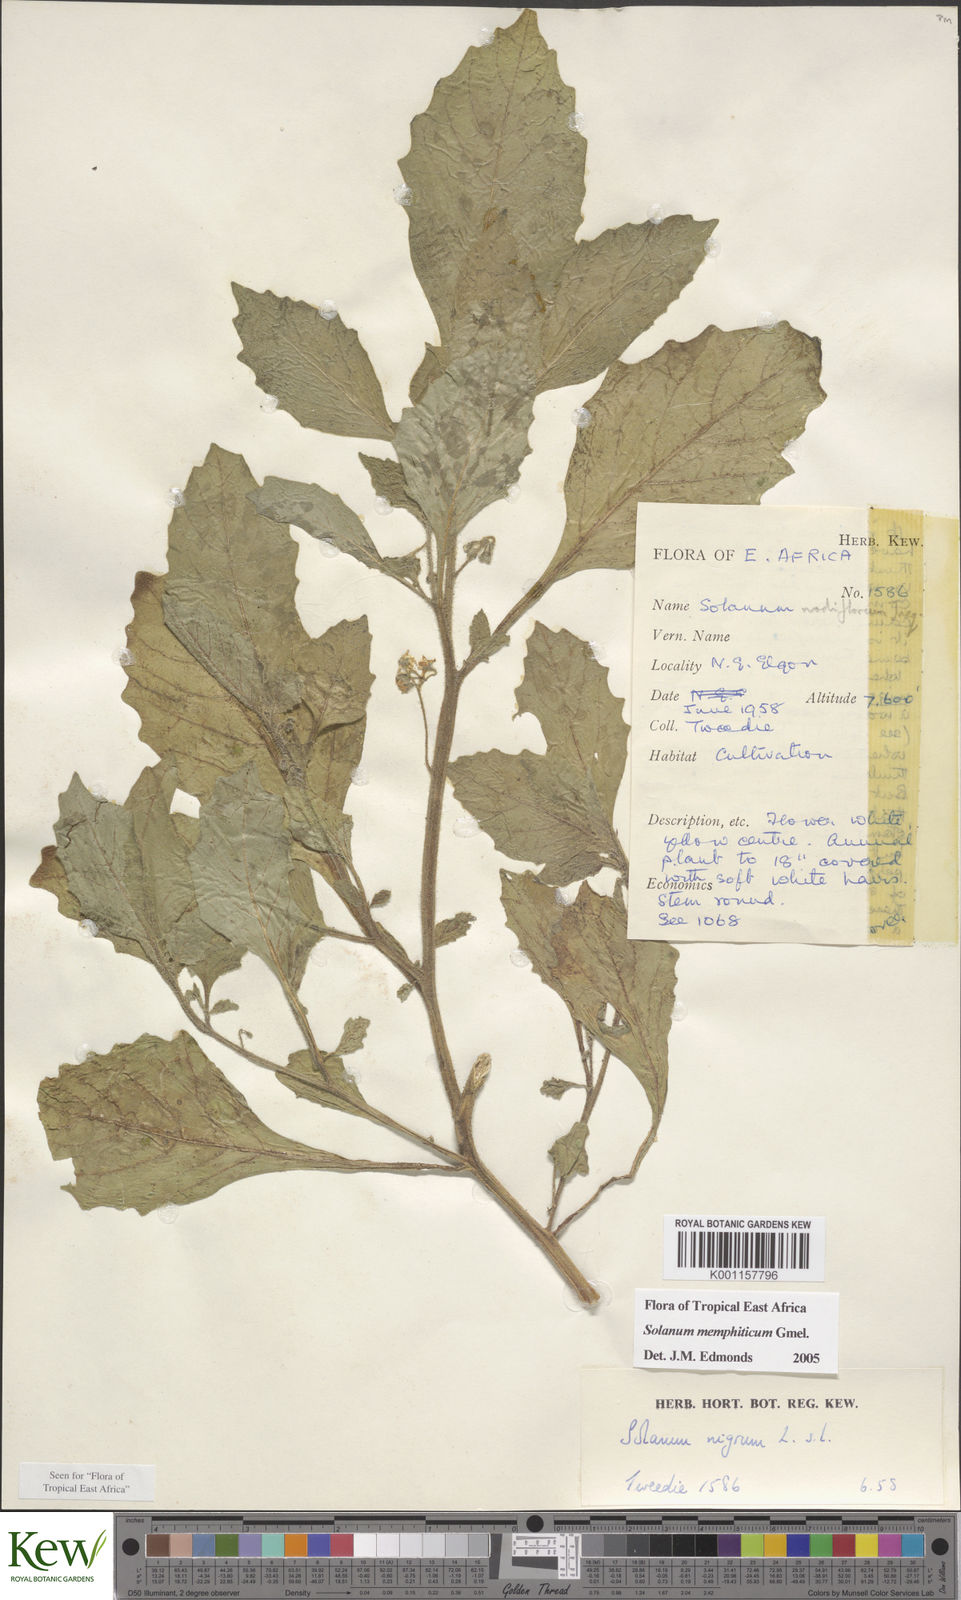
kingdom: Plantae
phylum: Tracheophyta
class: Magnoliopsida
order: Solanales
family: Solanaceae
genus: Solanum
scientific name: Solanum memphiticum
